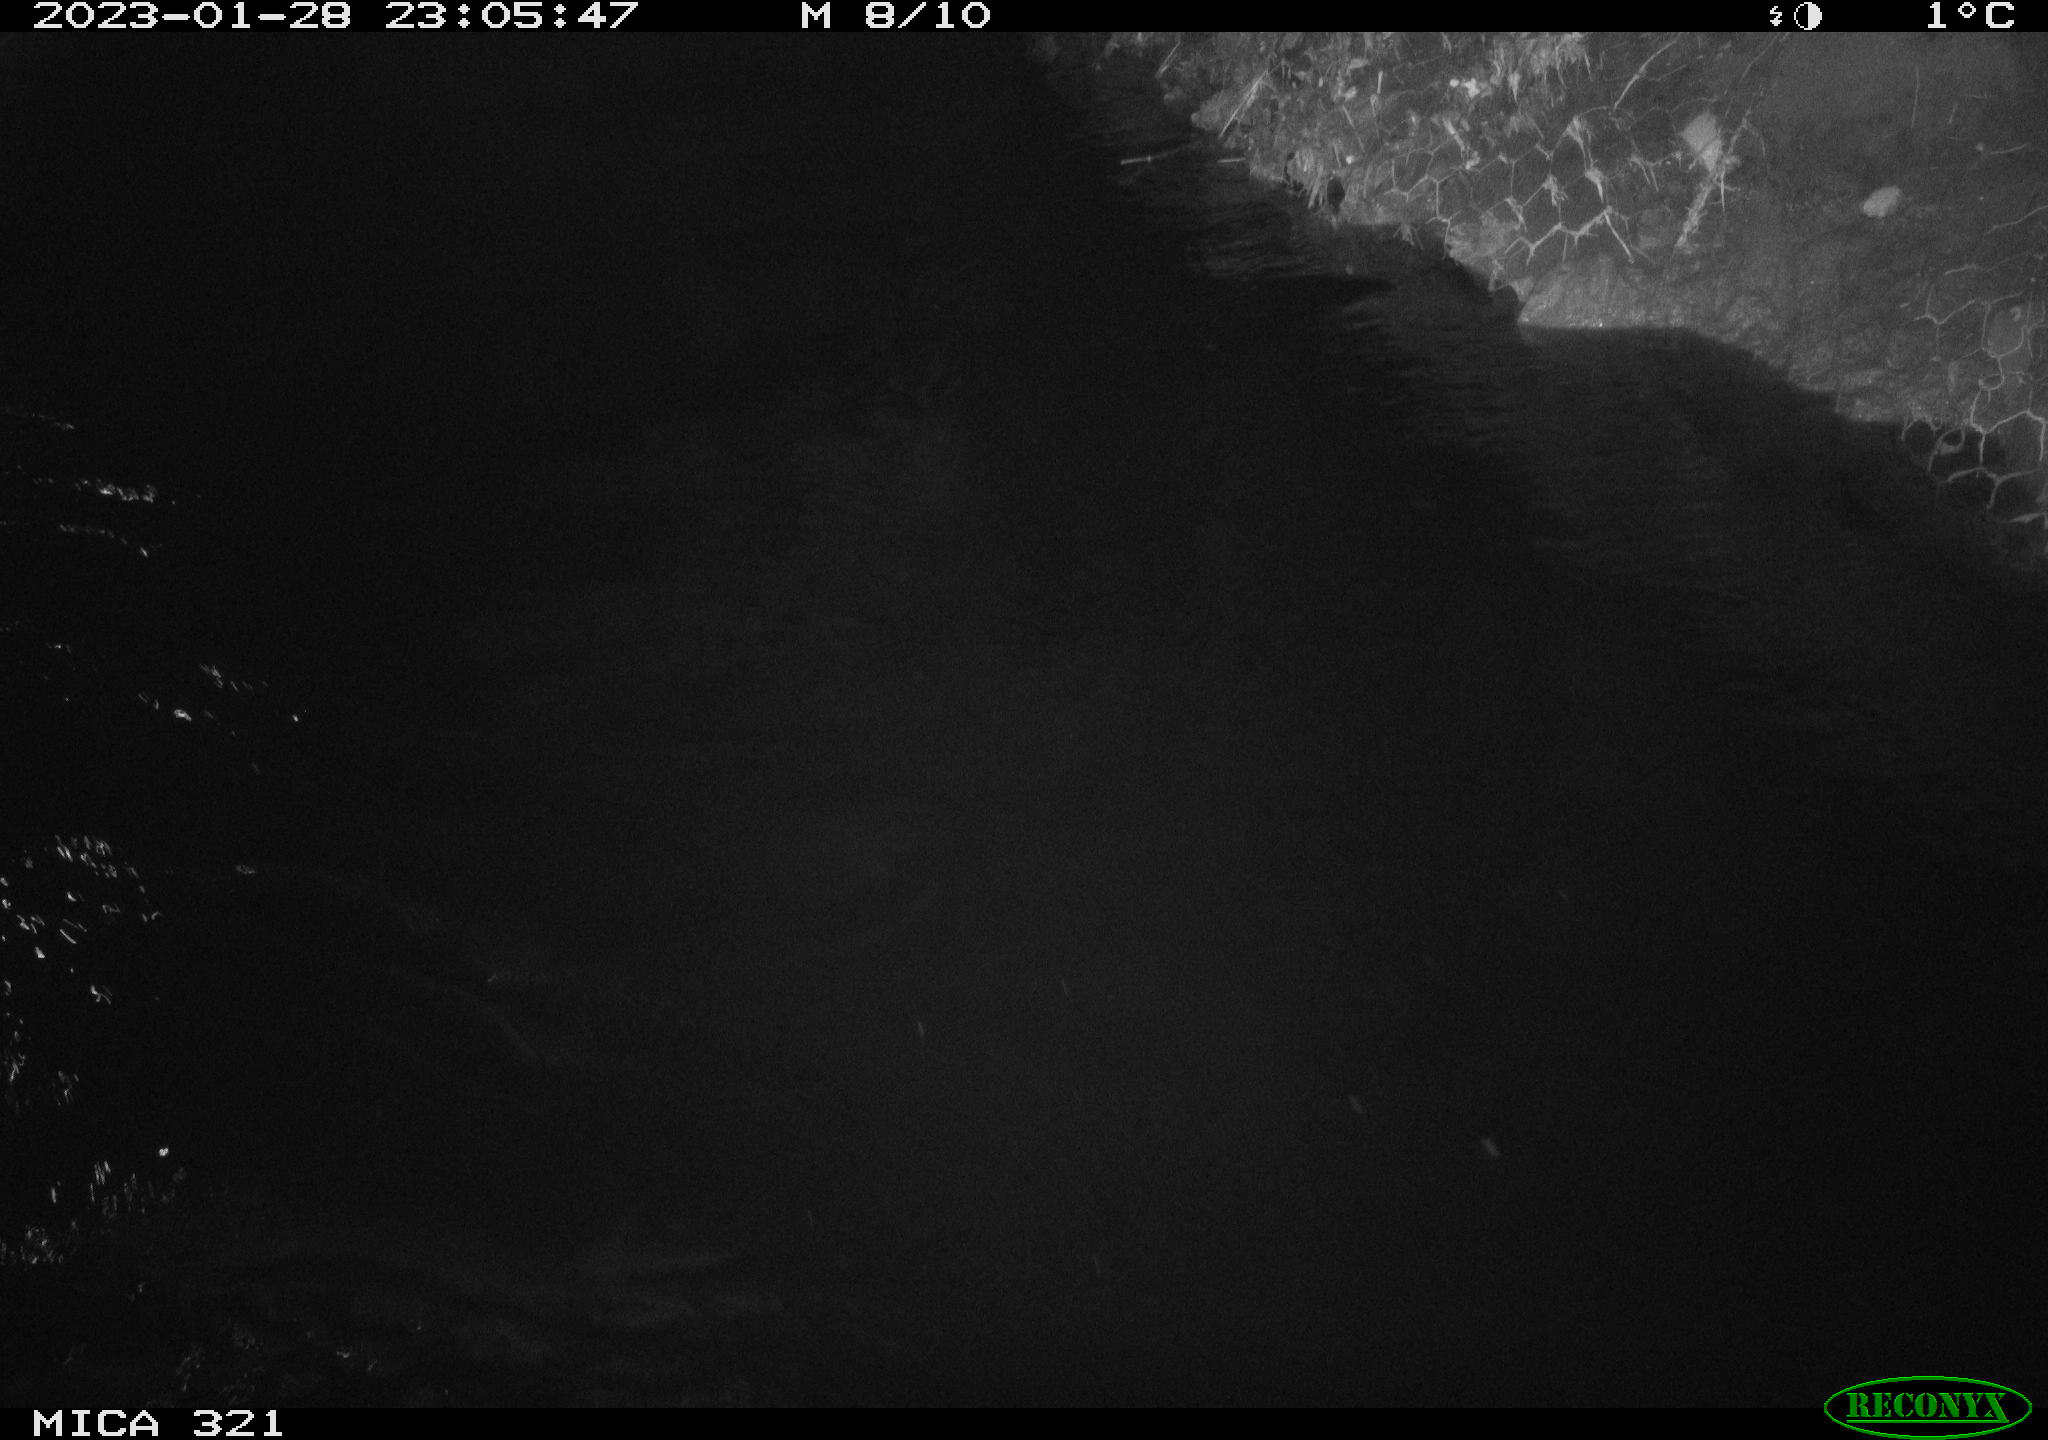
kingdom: Animalia
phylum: Chordata
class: Aves
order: Anseriformes
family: Anatidae
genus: Anas
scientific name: Anas
